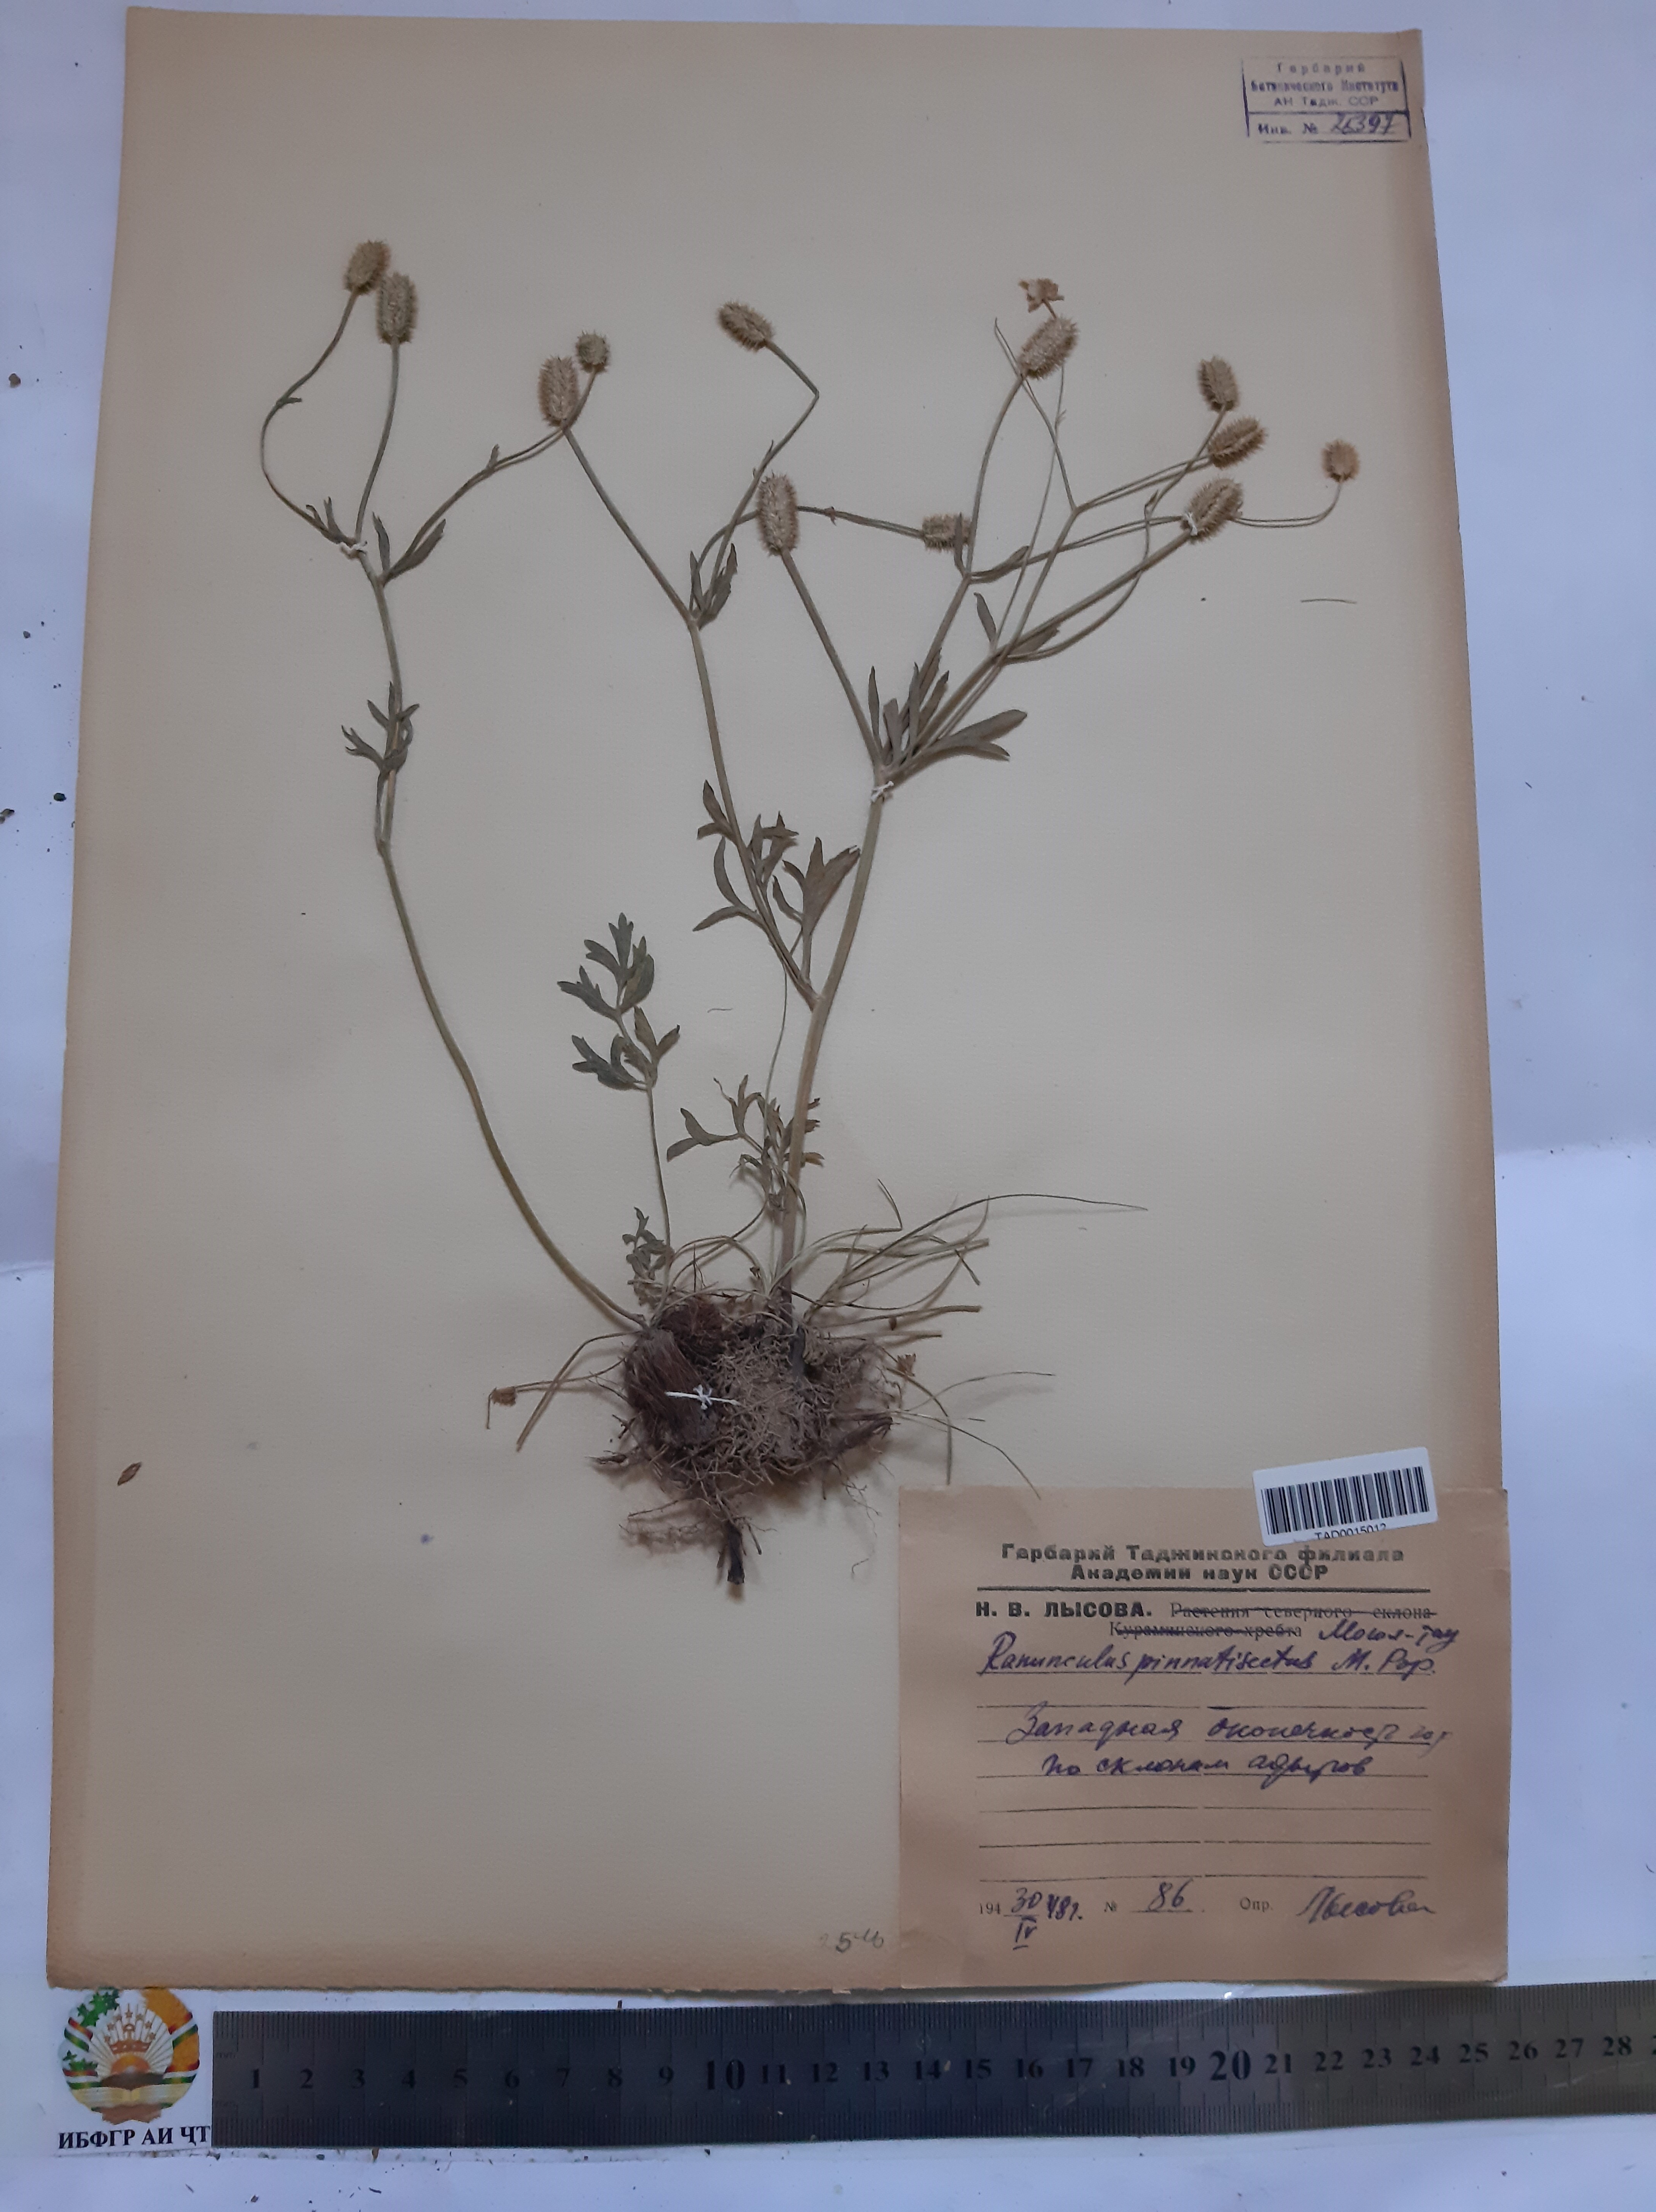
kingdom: Plantae
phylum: Tracheophyta
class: Magnoliopsida
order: Ranunculales
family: Ranunculaceae
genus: Ranunculus
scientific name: Ranunculus pinnatisectus
